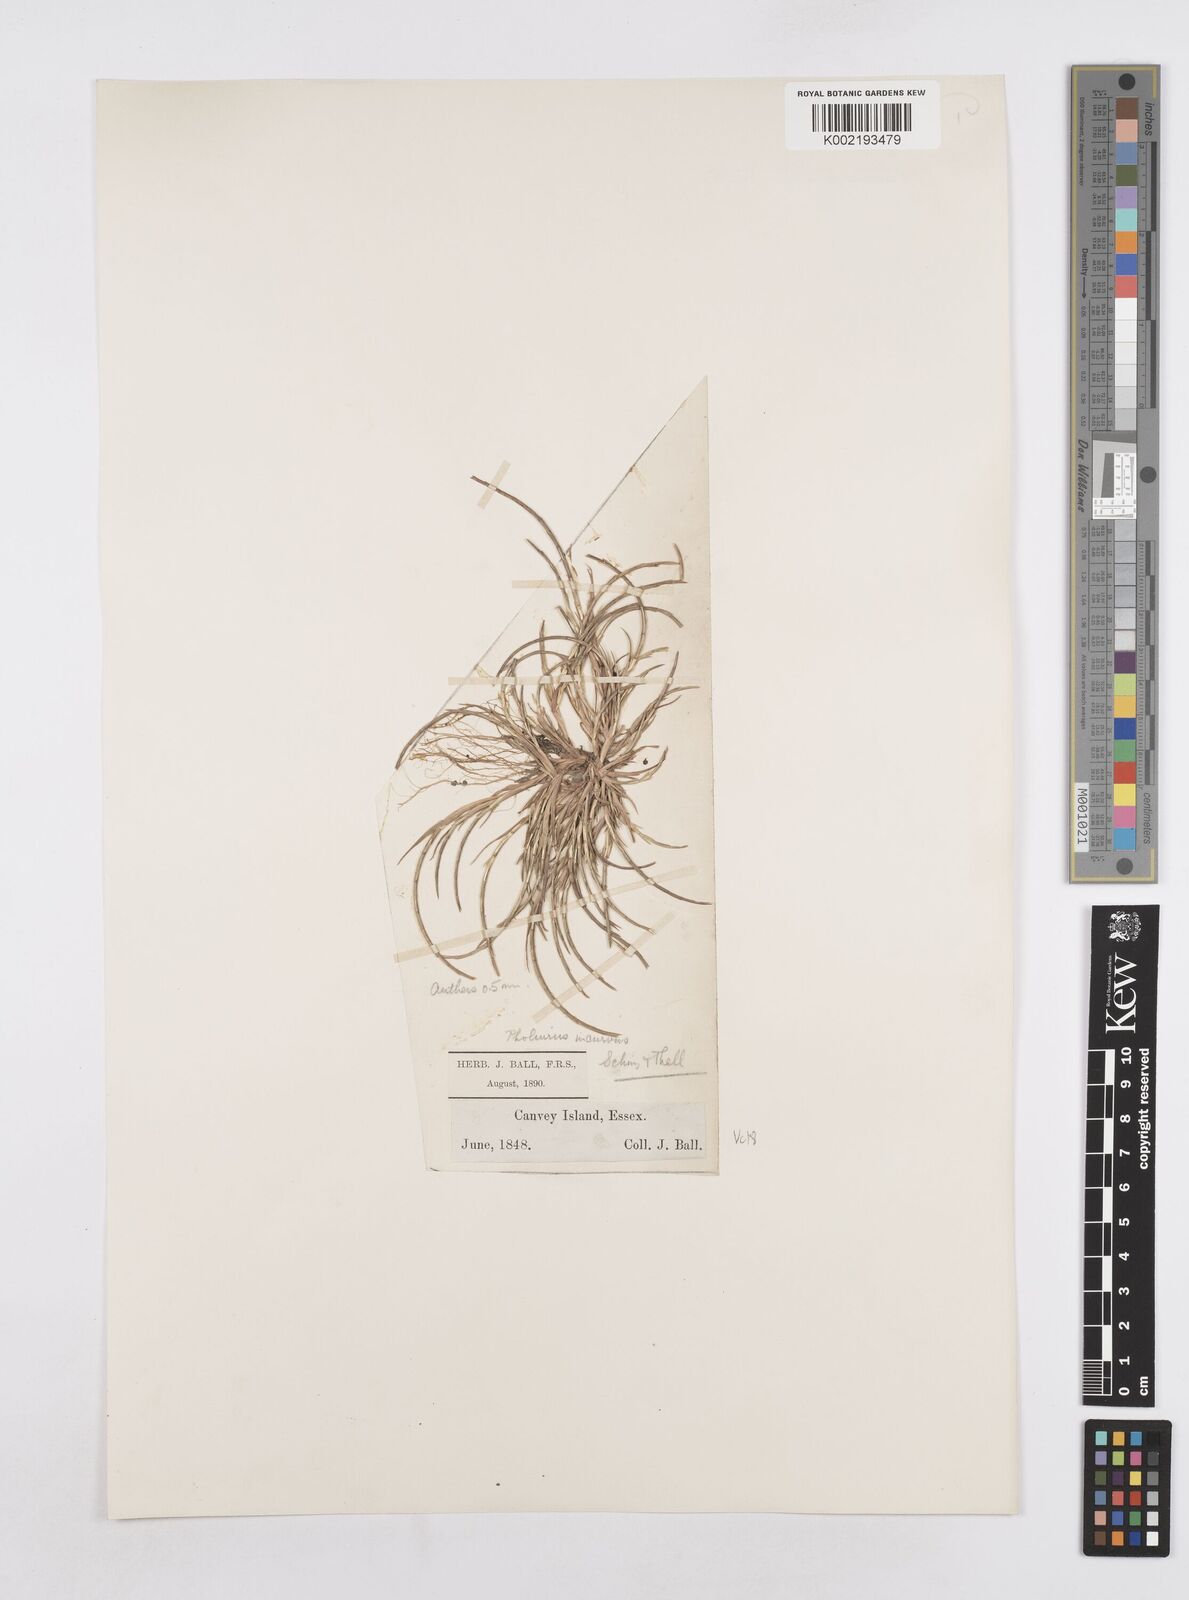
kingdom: Plantae
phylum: Tracheophyta
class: Liliopsida
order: Poales
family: Poaceae
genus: Parapholis
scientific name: Parapholis incurva
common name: Curved sicklegrass
